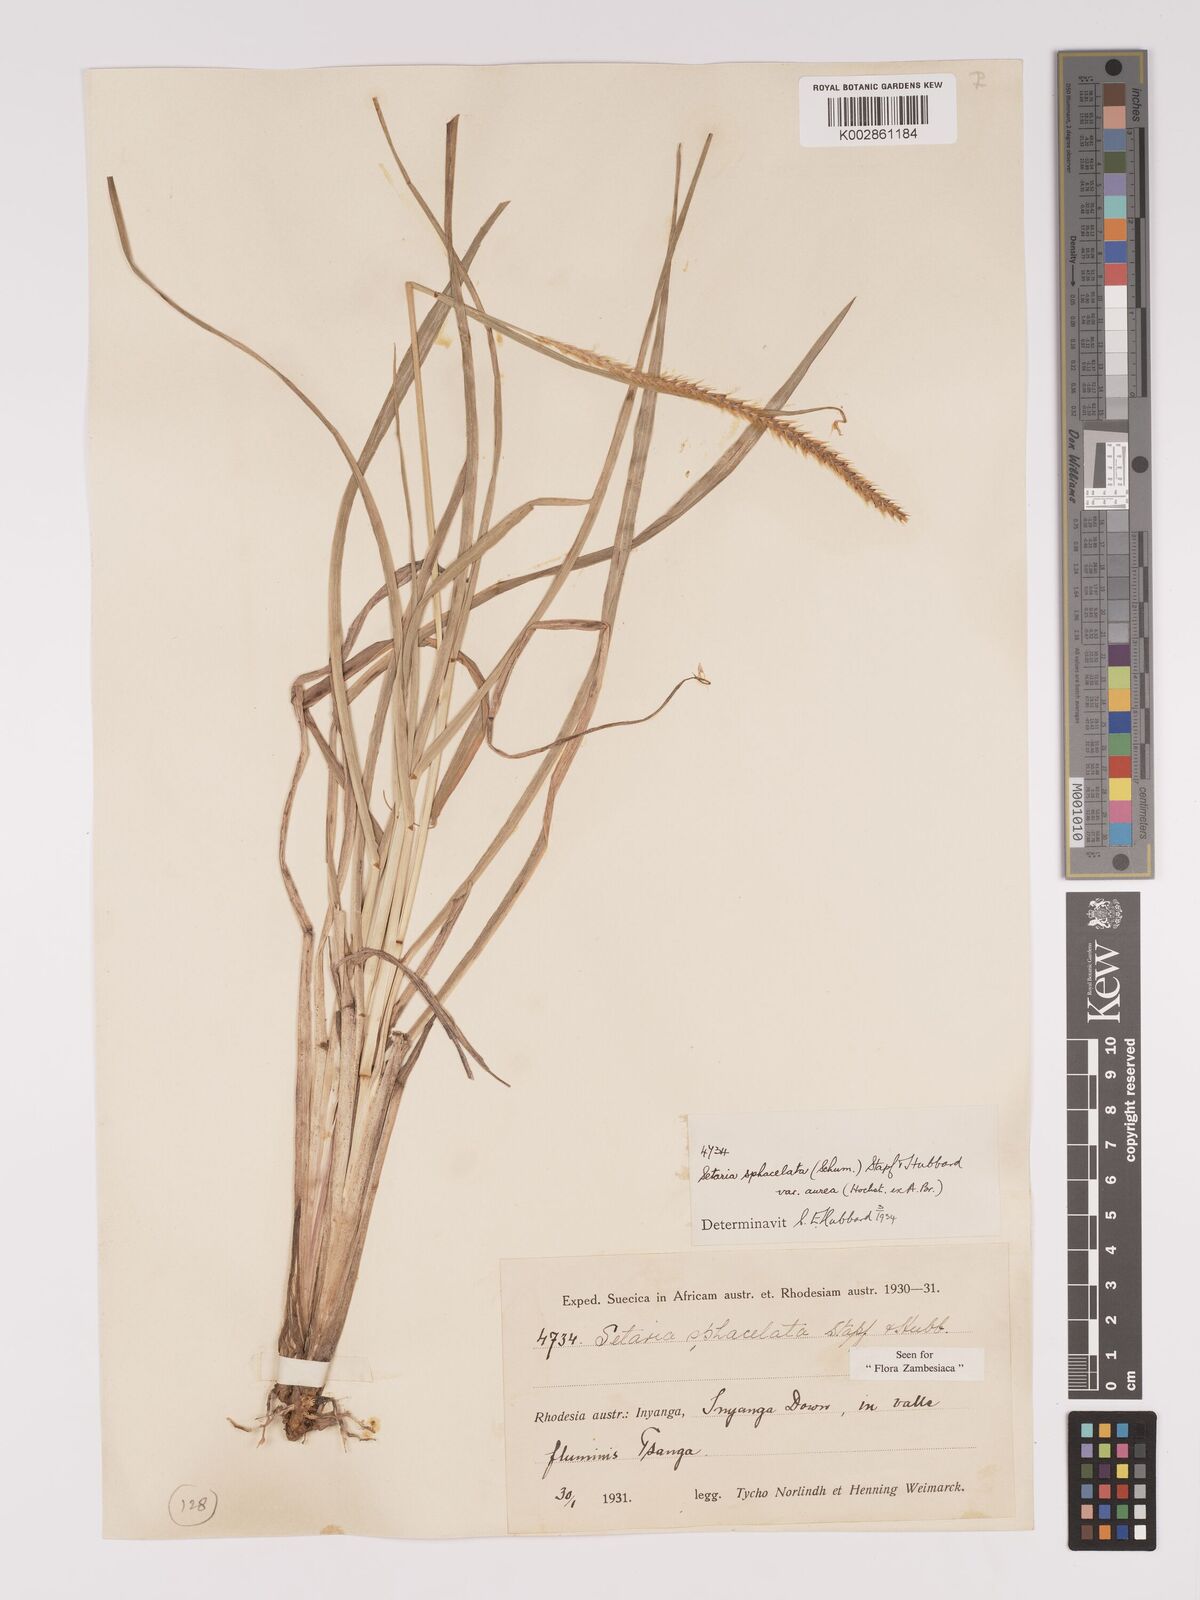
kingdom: Plantae
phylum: Tracheophyta
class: Liliopsida
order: Poales
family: Poaceae
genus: Setaria
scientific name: Setaria sphacelata
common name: African bristlegrass
